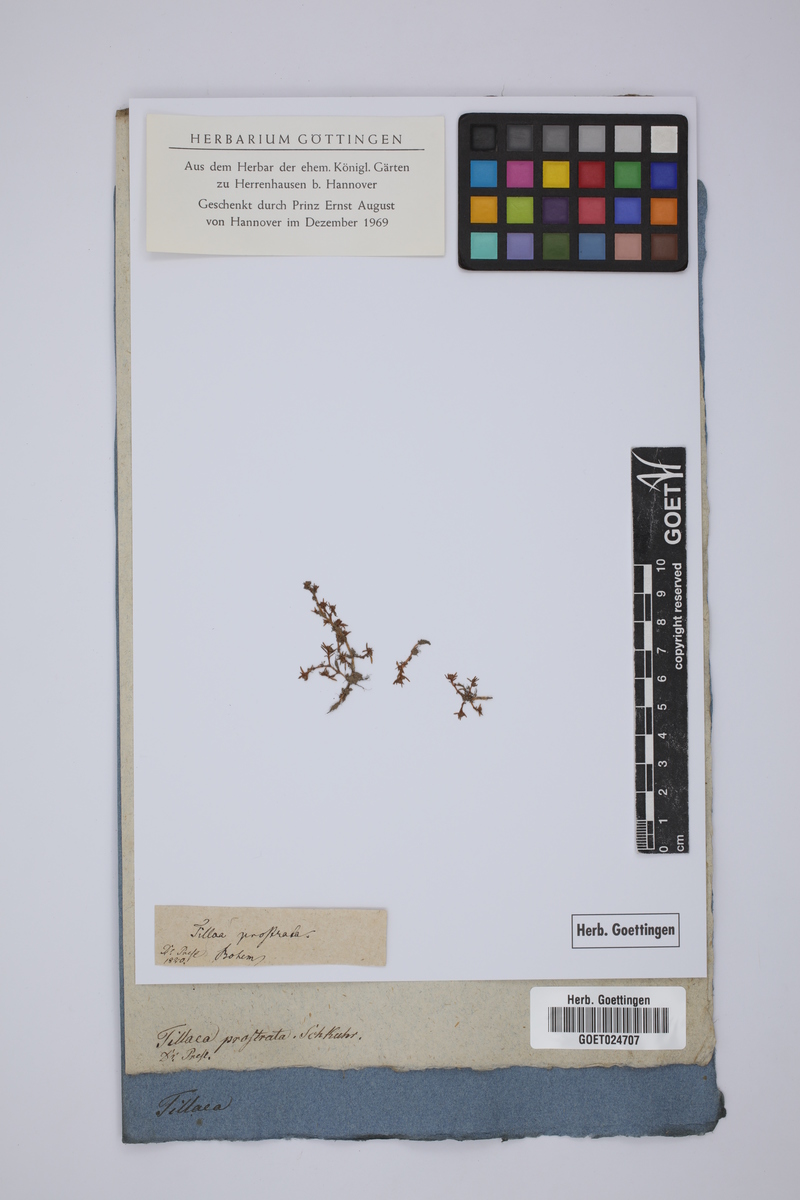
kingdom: Plantae
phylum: Tracheophyta
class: Magnoliopsida
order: Saxifragales
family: Crassulaceae
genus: Crassula
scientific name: Crassula aquatica
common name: Pigmyweed
